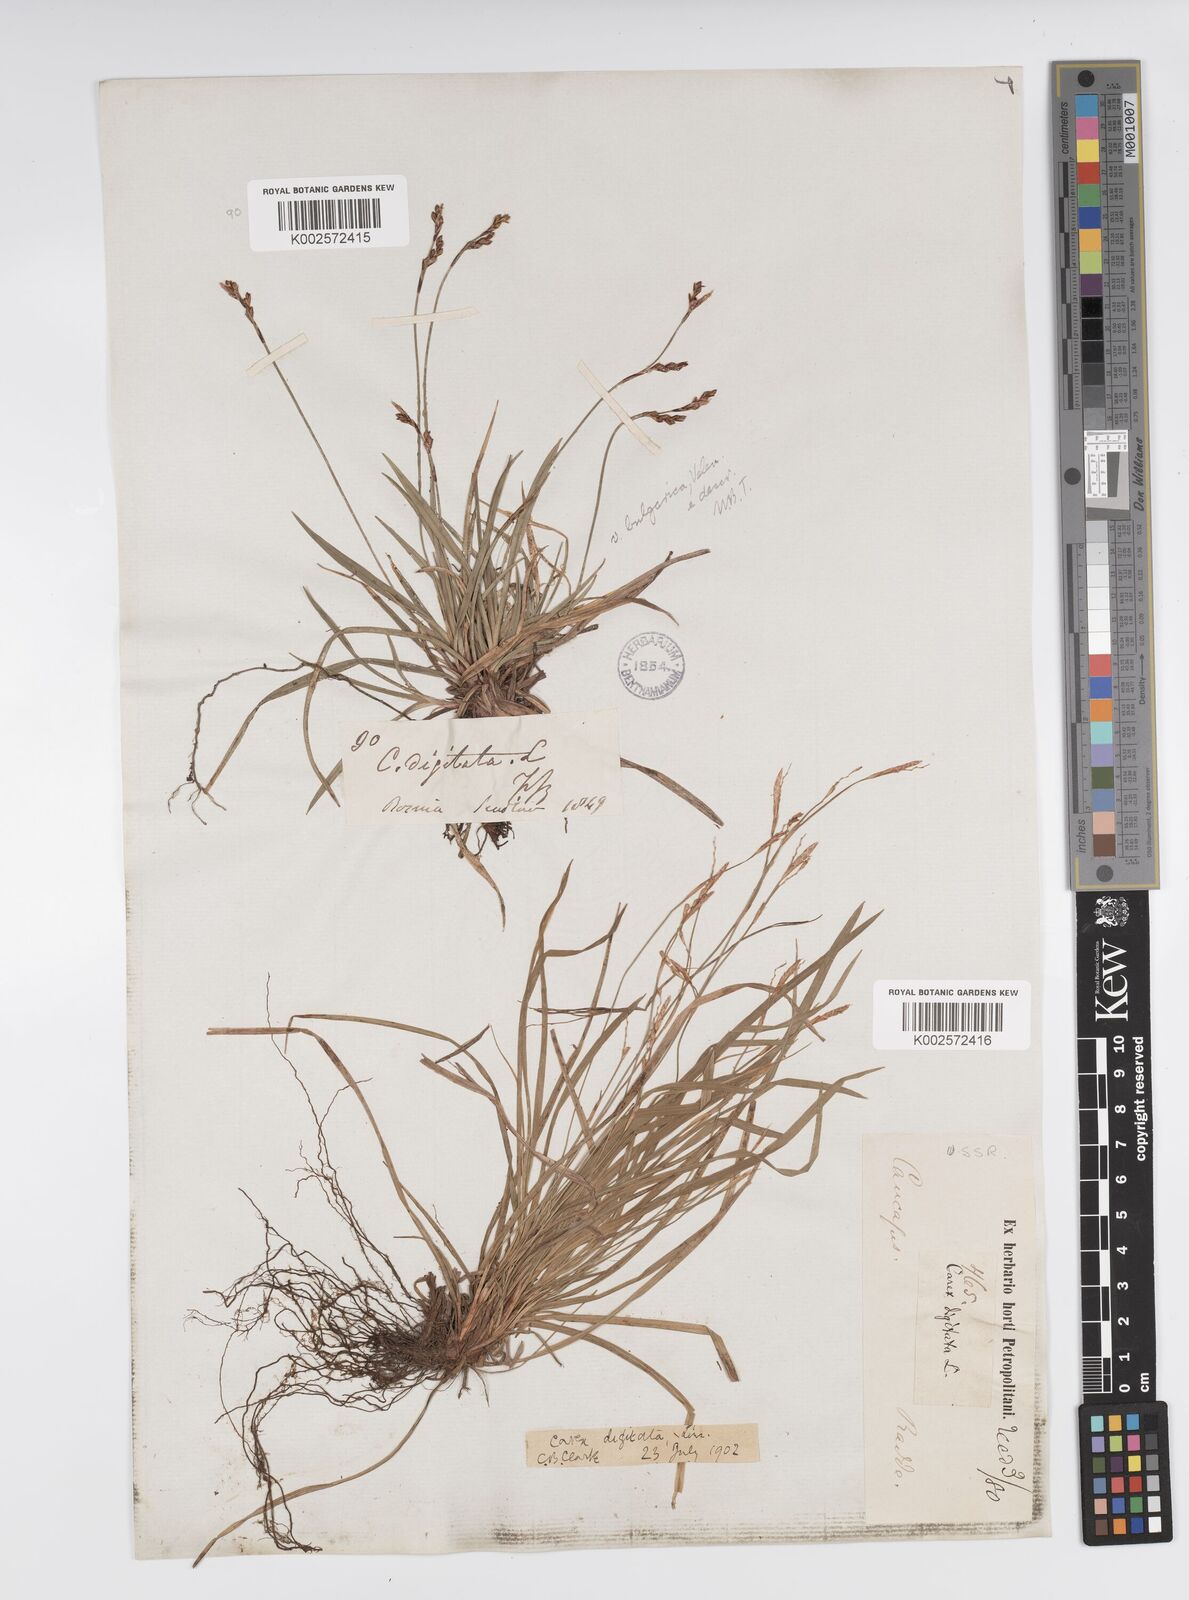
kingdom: Plantae
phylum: Tracheophyta
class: Liliopsida
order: Poales
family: Cyperaceae
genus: Carex
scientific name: Carex digitata
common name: Fingered sedge
